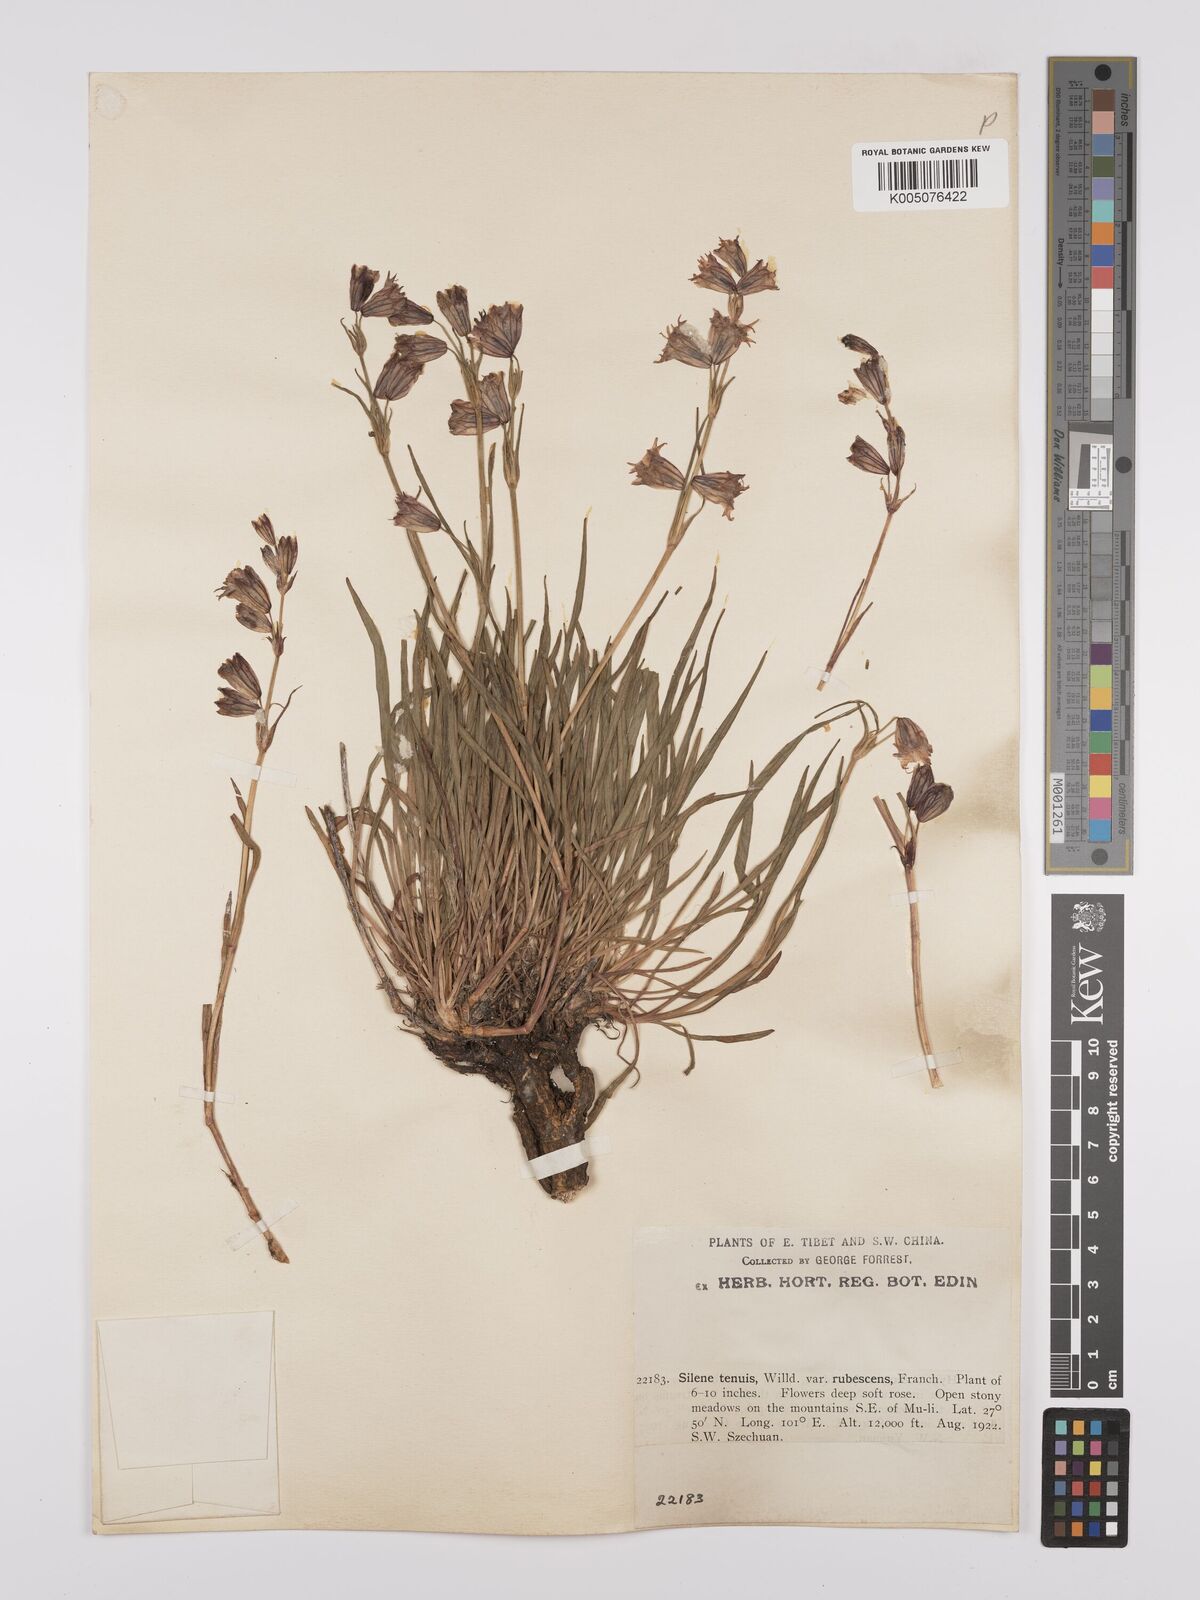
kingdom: Plantae
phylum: Tracheophyta
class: Magnoliopsida
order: Caryophyllales
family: Caryophyllaceae
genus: Silene
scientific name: Silene
